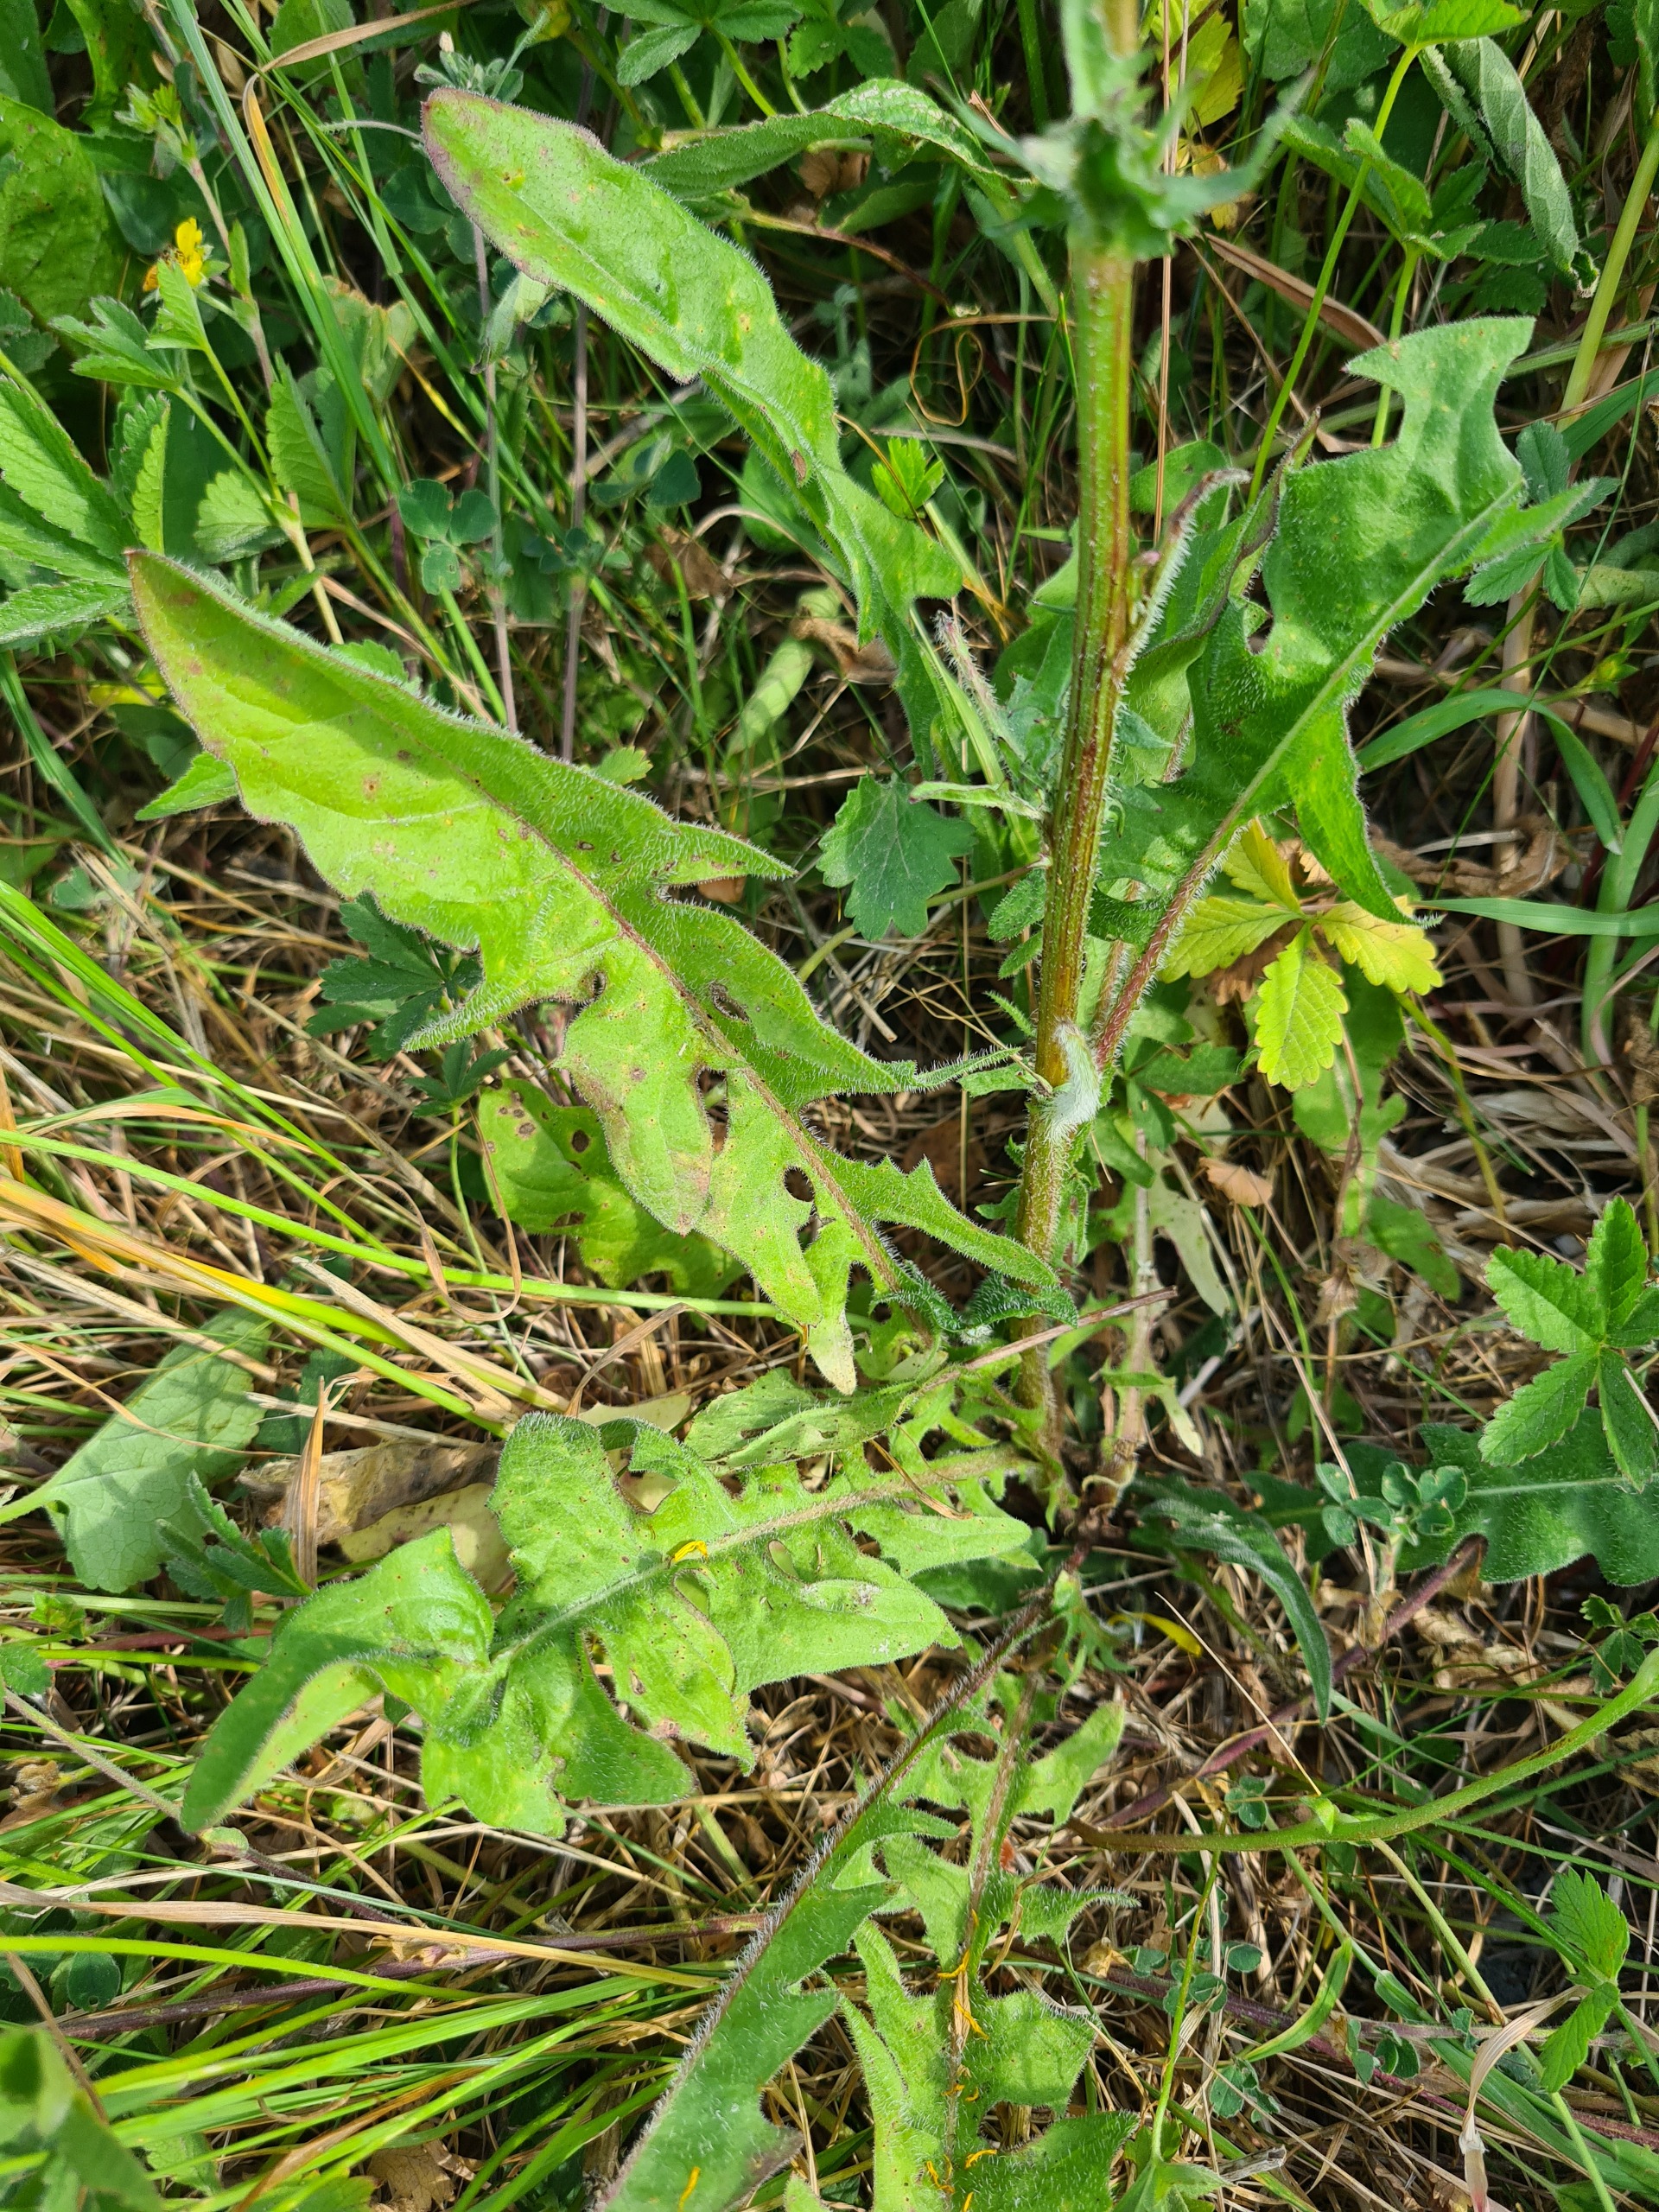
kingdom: Plantae
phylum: Tracheophyta
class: Magnoliopsida
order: Asterales
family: Asteraceae
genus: Crepis
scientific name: Crepis biennis
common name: Toårig høgeskæg
